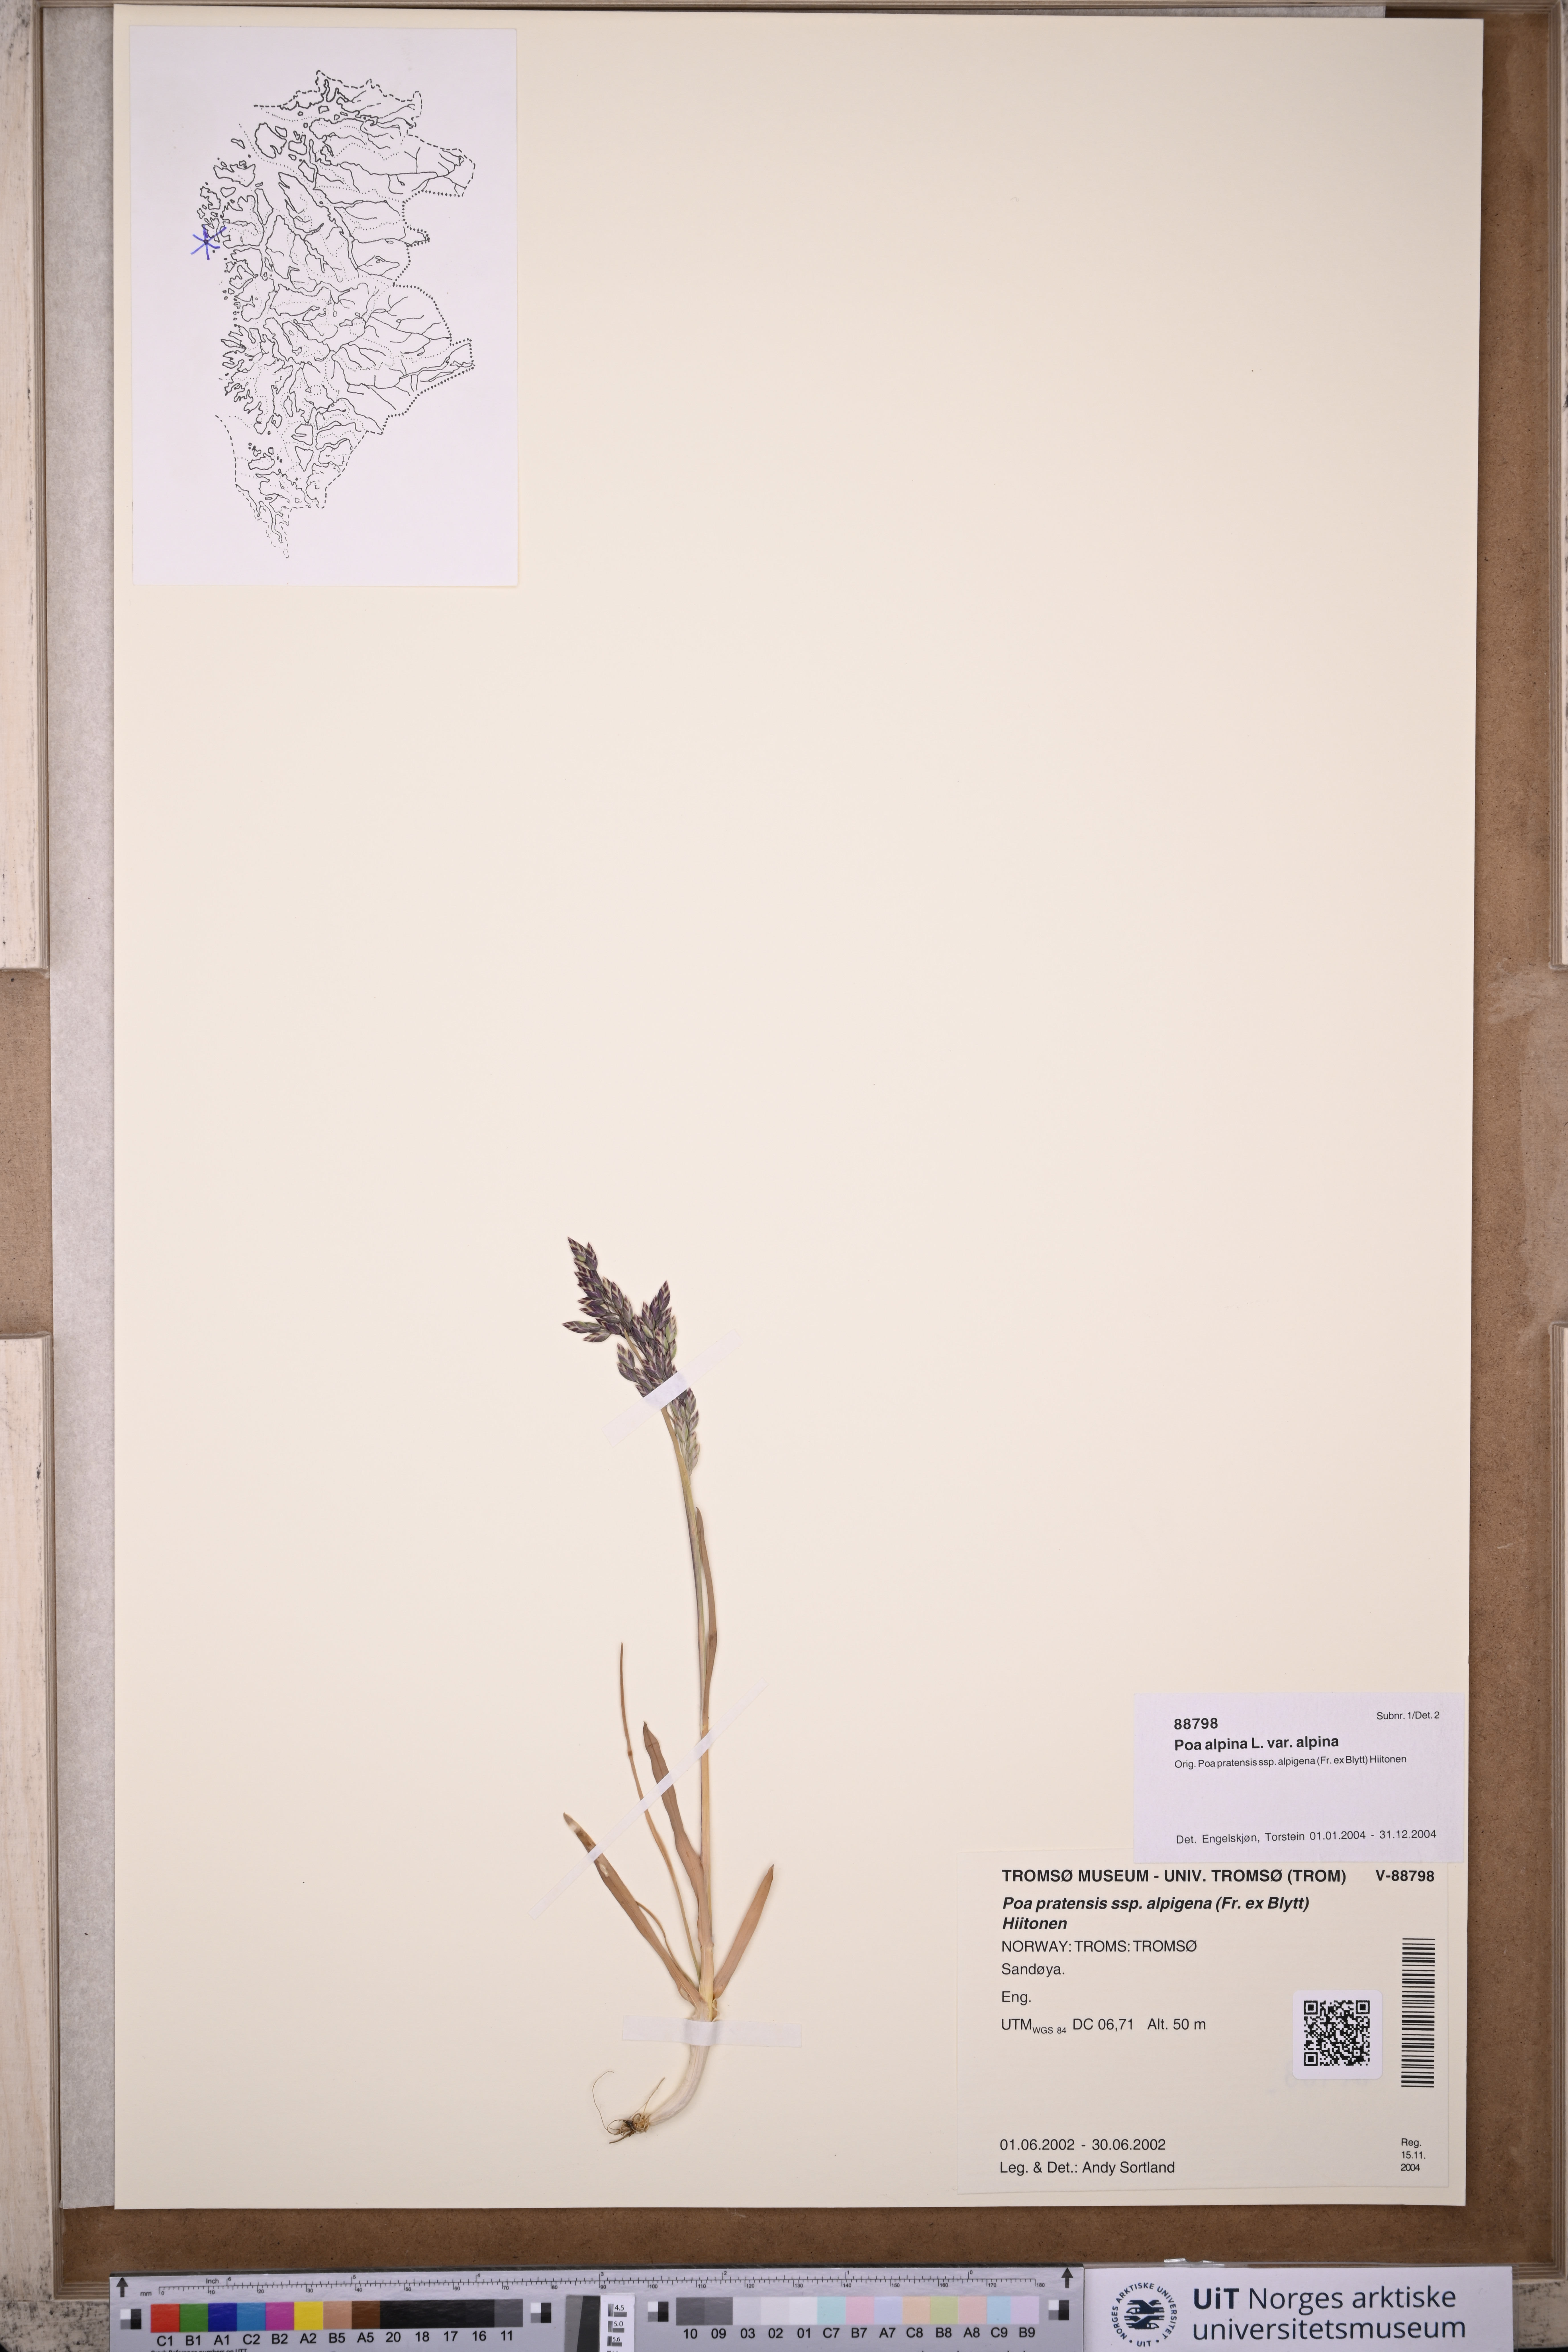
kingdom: Plantae
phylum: Tracheophyta
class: Liliopsida
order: Poales
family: Poaceae
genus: Poa
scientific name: Poa alpina
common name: Alpine bluegrass
